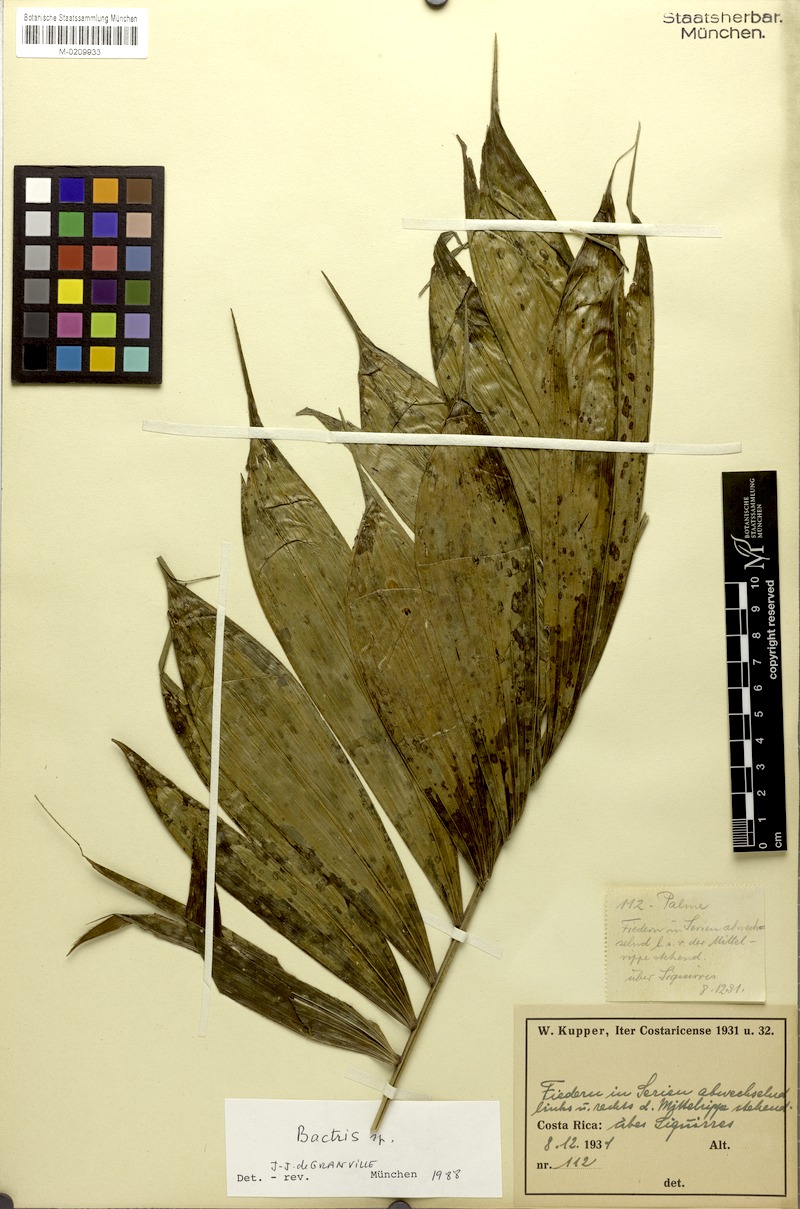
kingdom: Plantae
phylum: Tracheophyta
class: Liliopsida
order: Arecales
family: Arecaceae
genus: Bactris
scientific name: Bactris
